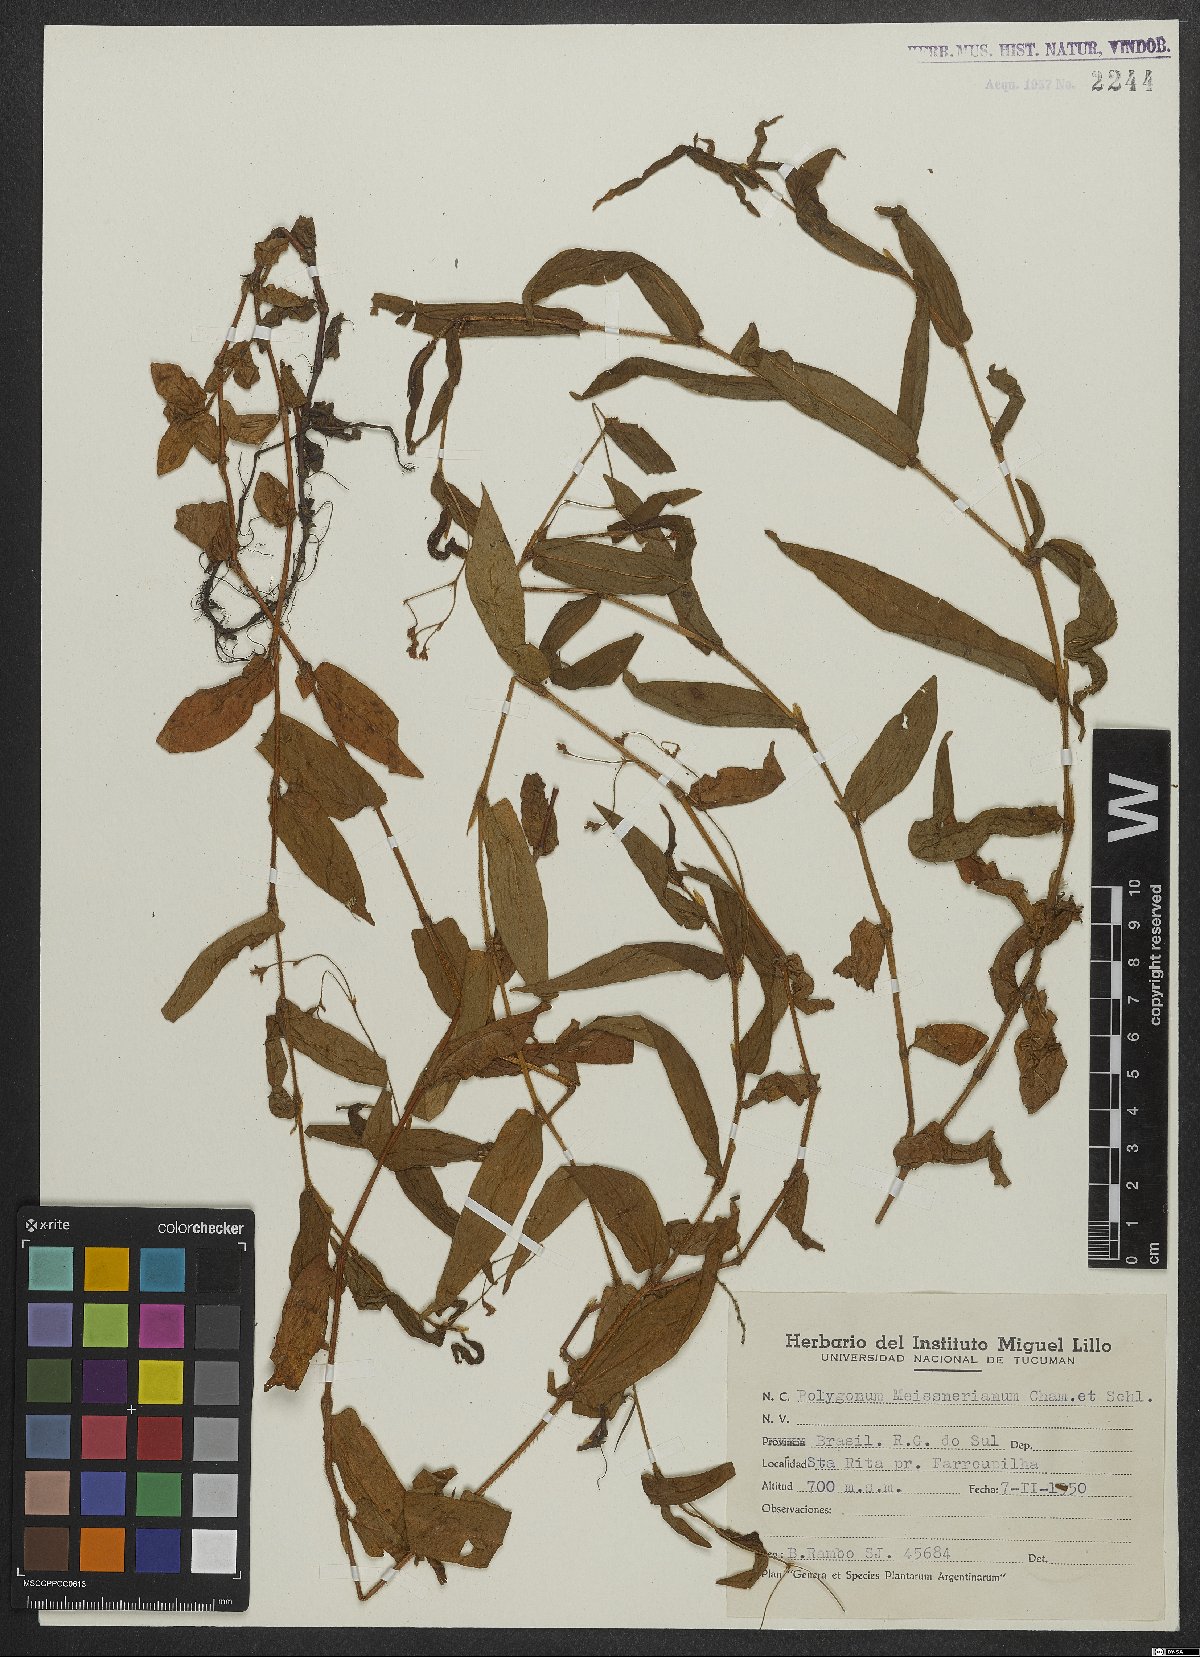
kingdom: Plantae
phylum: Tracheophyta
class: Magnoliopsida
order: Caryophyllales
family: Polygonaceae
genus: Persicaria
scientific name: Persicaria meisneriana
